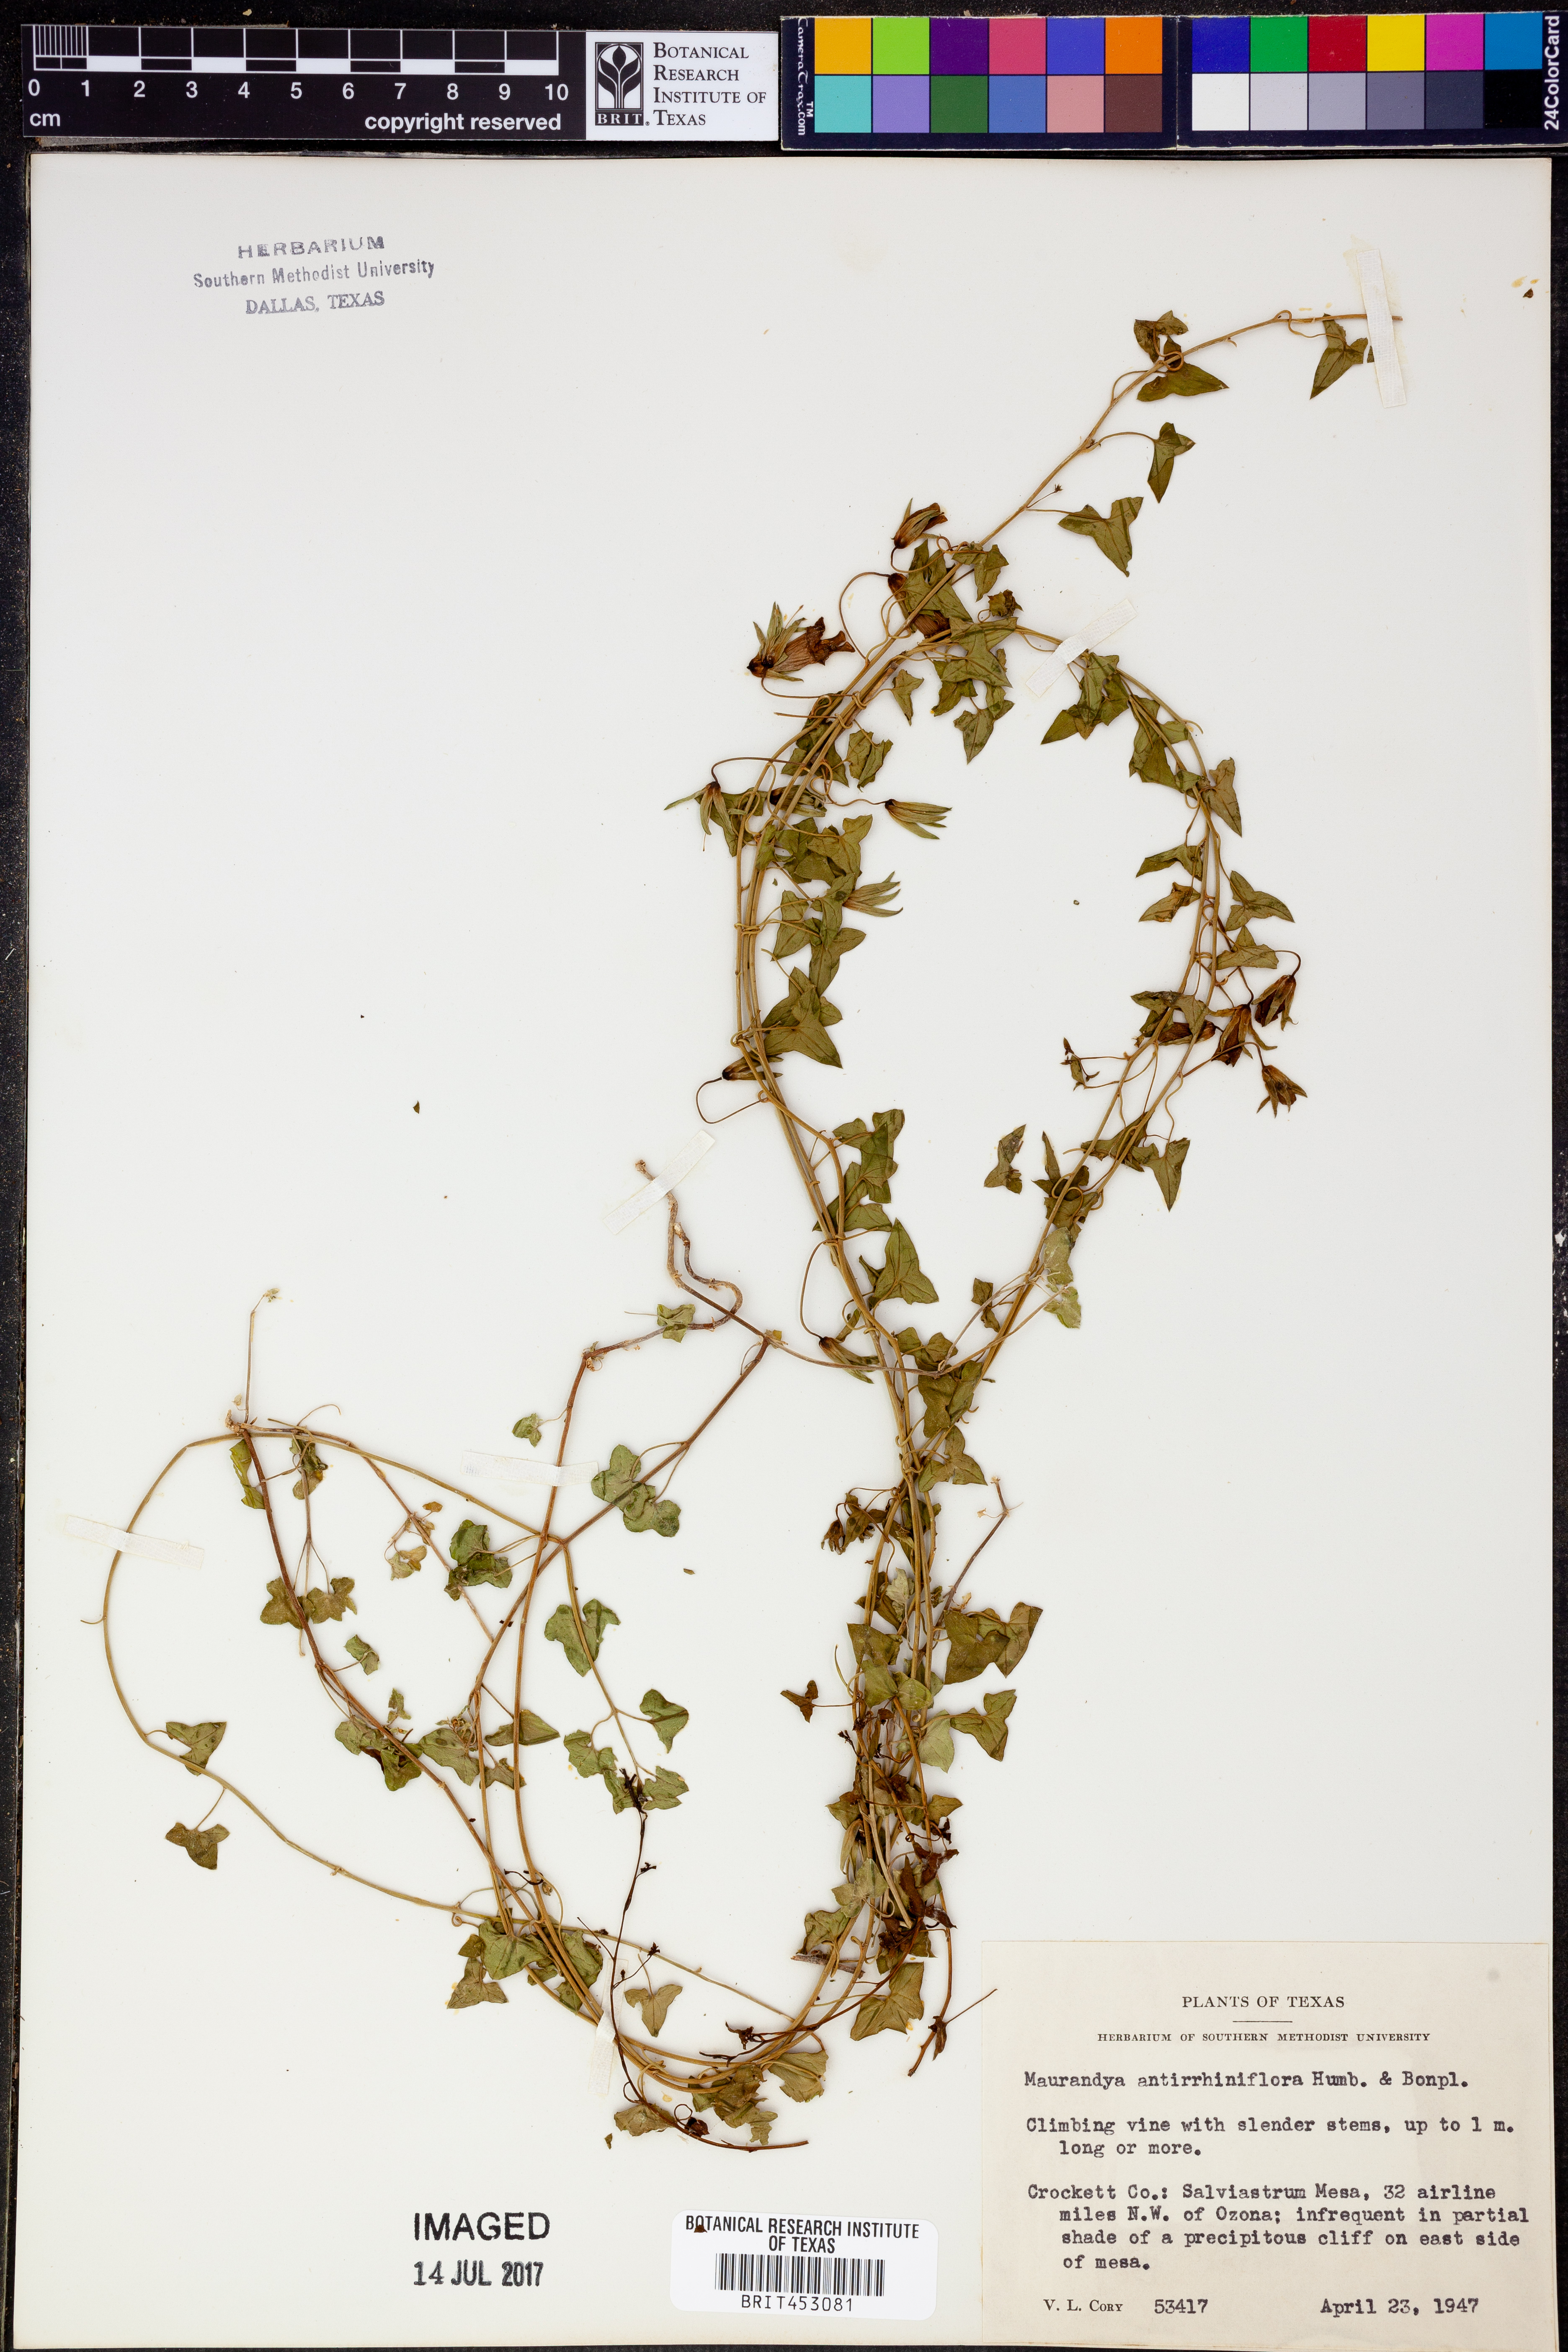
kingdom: Plantae
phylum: Tracheophyta
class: Magnoliopsida
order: Lamiales
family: Plantaginaceae
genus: Maurandella
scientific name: Maurandella antirrhiniflora
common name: Violet twining-snapdragon
